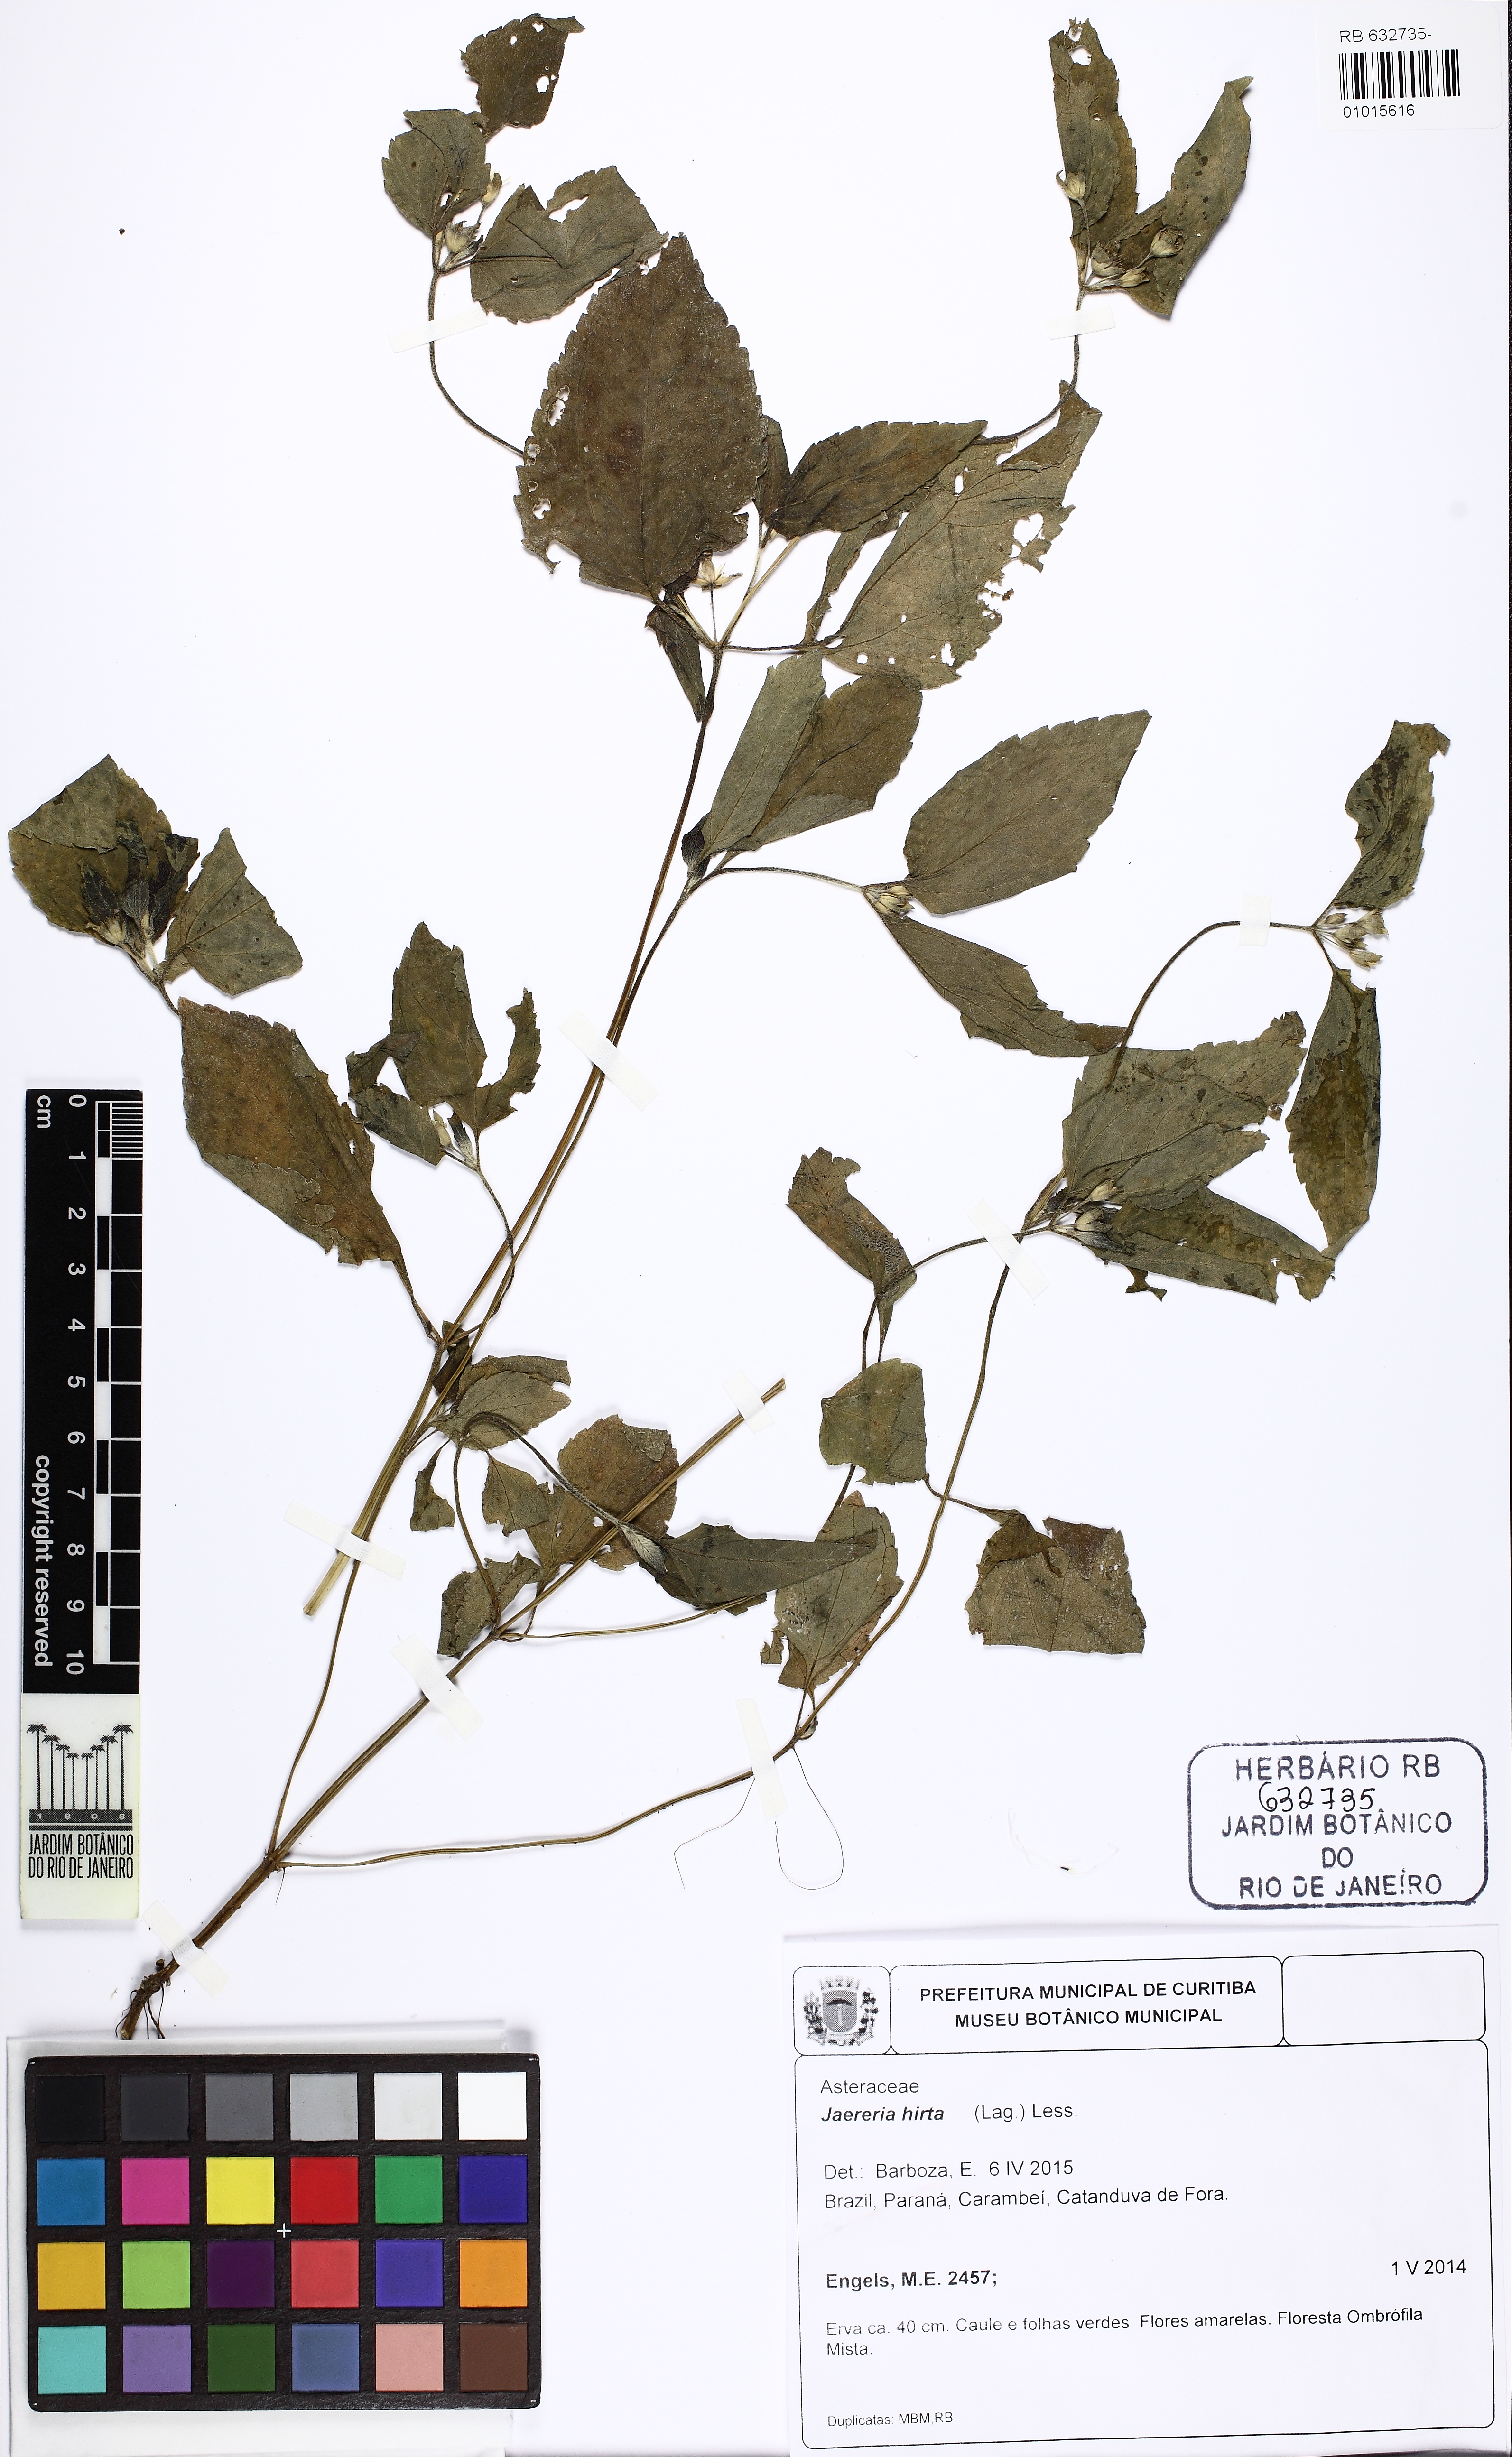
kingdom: Plantae
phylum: Tracheophyta
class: Magnoliopsida
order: Asterales
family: Asteraceae
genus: Jaegeria
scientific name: Jaegeria hirta
